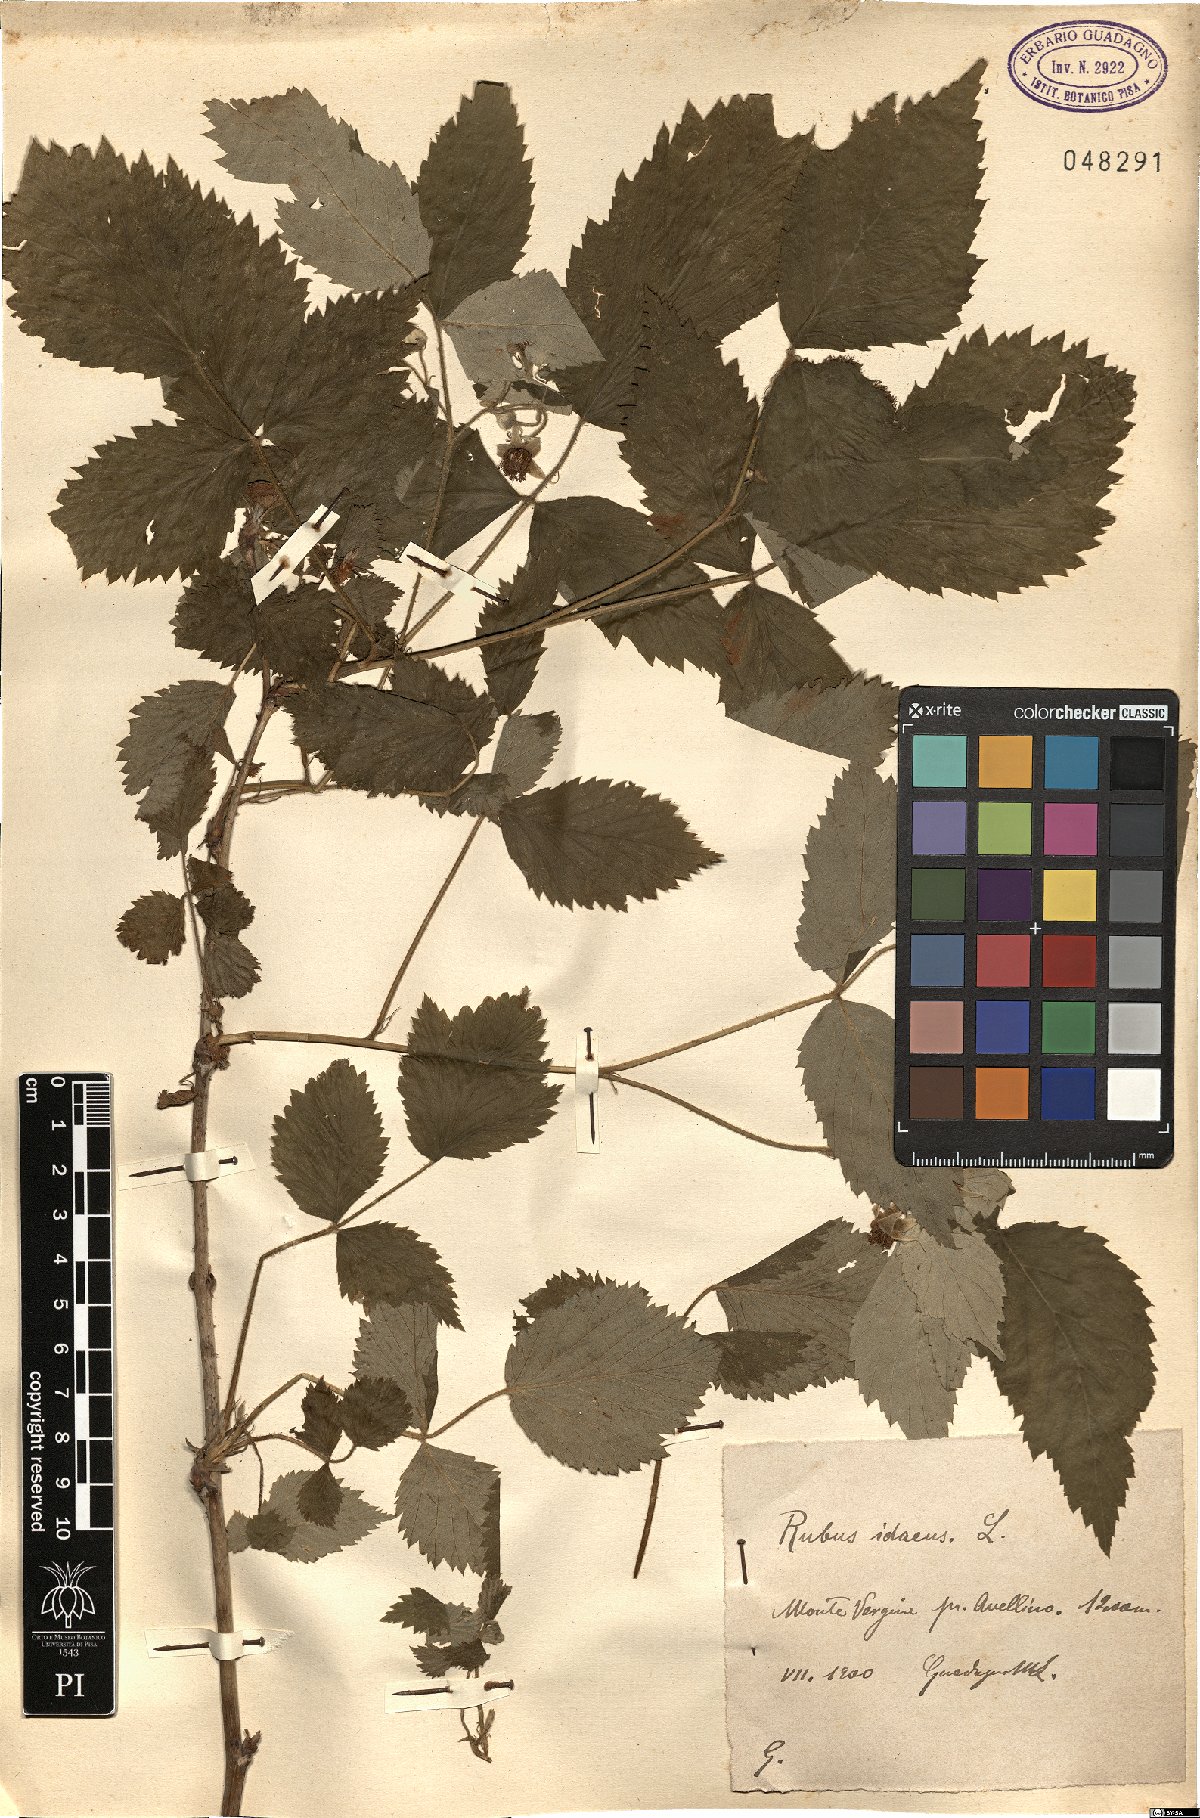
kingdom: Plantae
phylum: Tracheophyta
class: Magnoliopsida
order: Rosales
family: Rosaceae
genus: Rubus
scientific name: Rubus idaeus
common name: Raspberry
